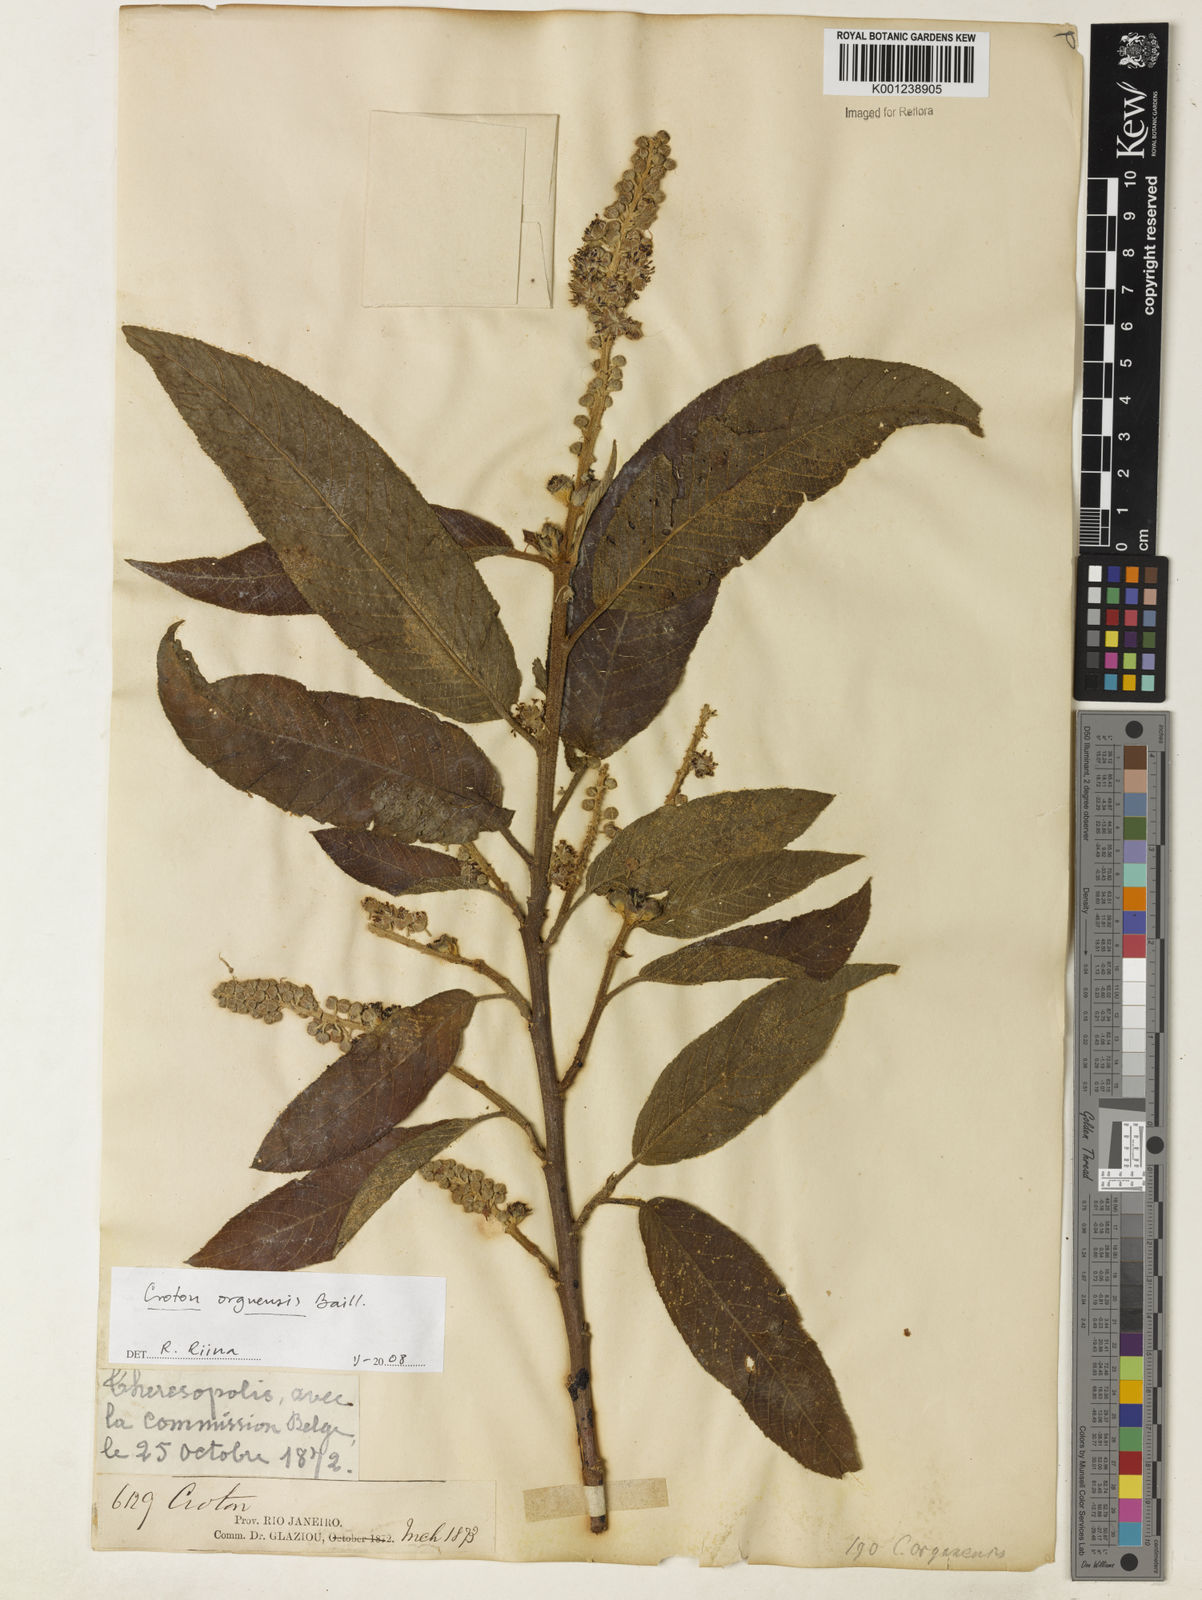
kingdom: Plantae
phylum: Tracheophyta
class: Magnoliopsida
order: Malpighiales
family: Euphorbiaceae
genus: Croton
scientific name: Croton organensis
